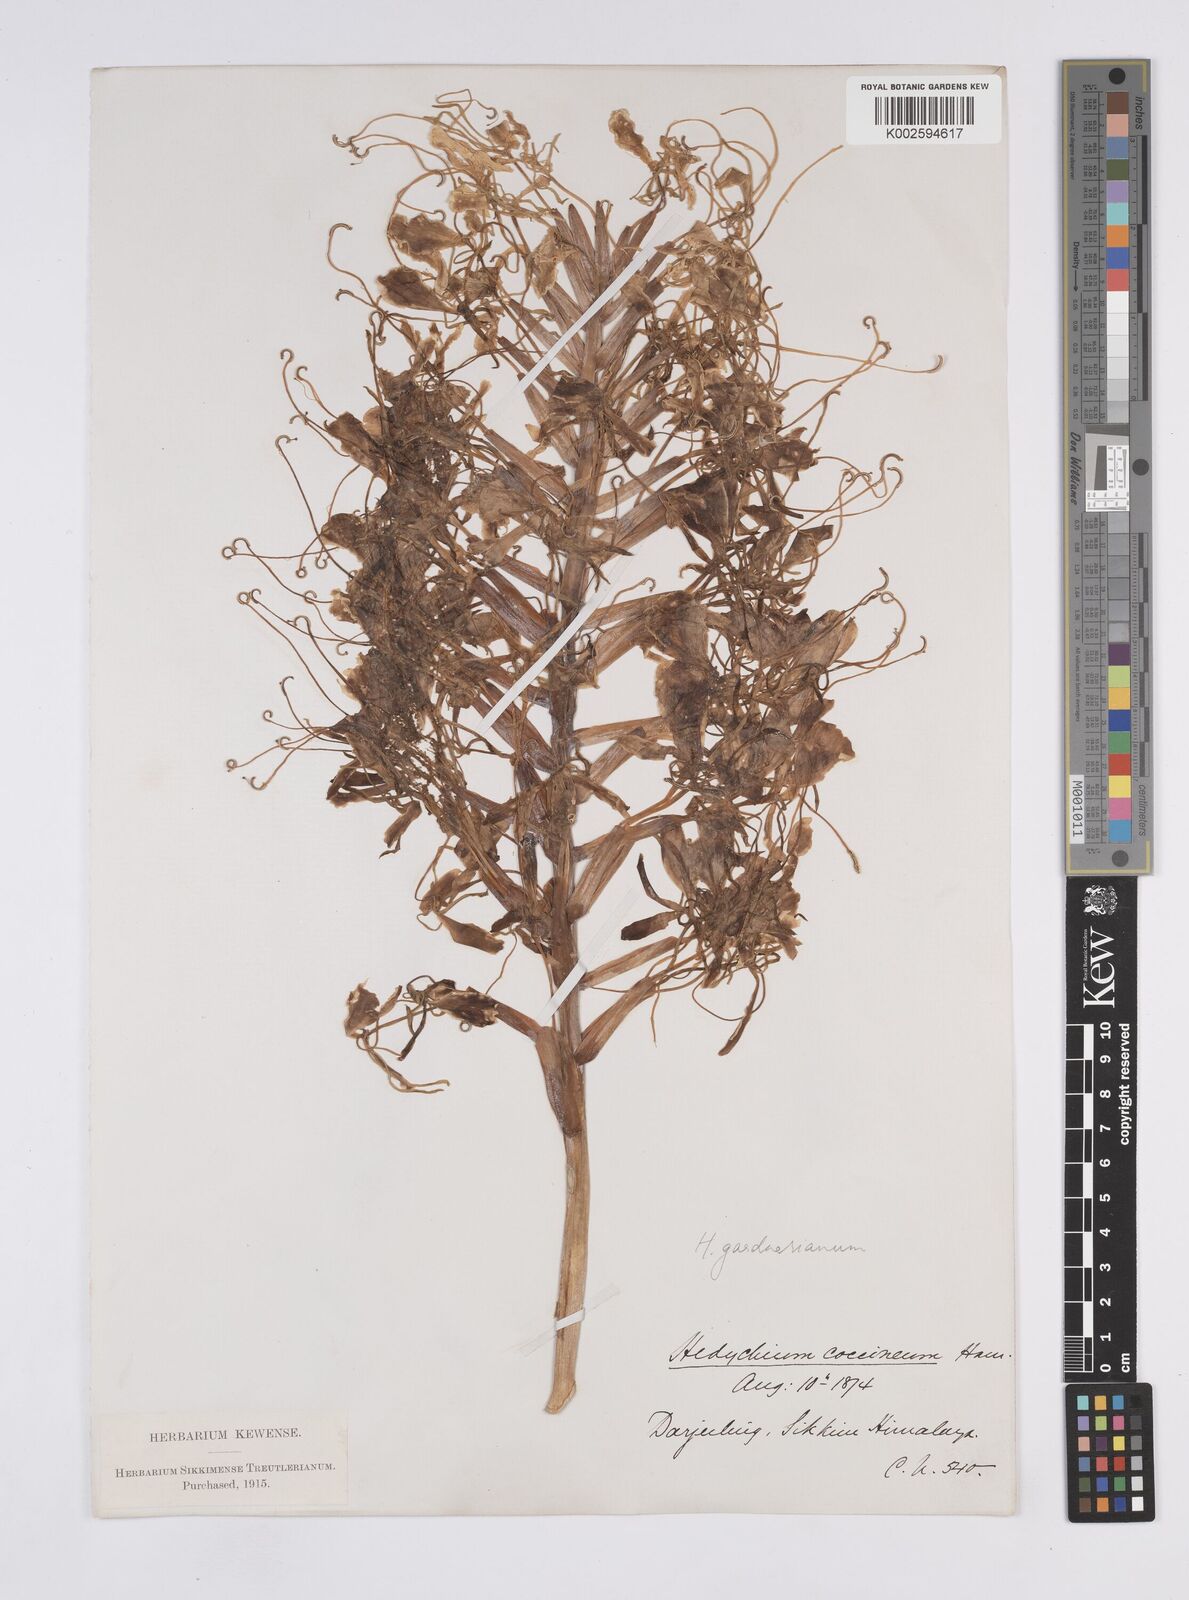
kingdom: Plantae
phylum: Tracheophyta
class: Liliopsida
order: Zingiberales
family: Zingiberaceae
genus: Hedychium
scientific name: Hedychium gardnerianum
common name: Himalayan ginger
